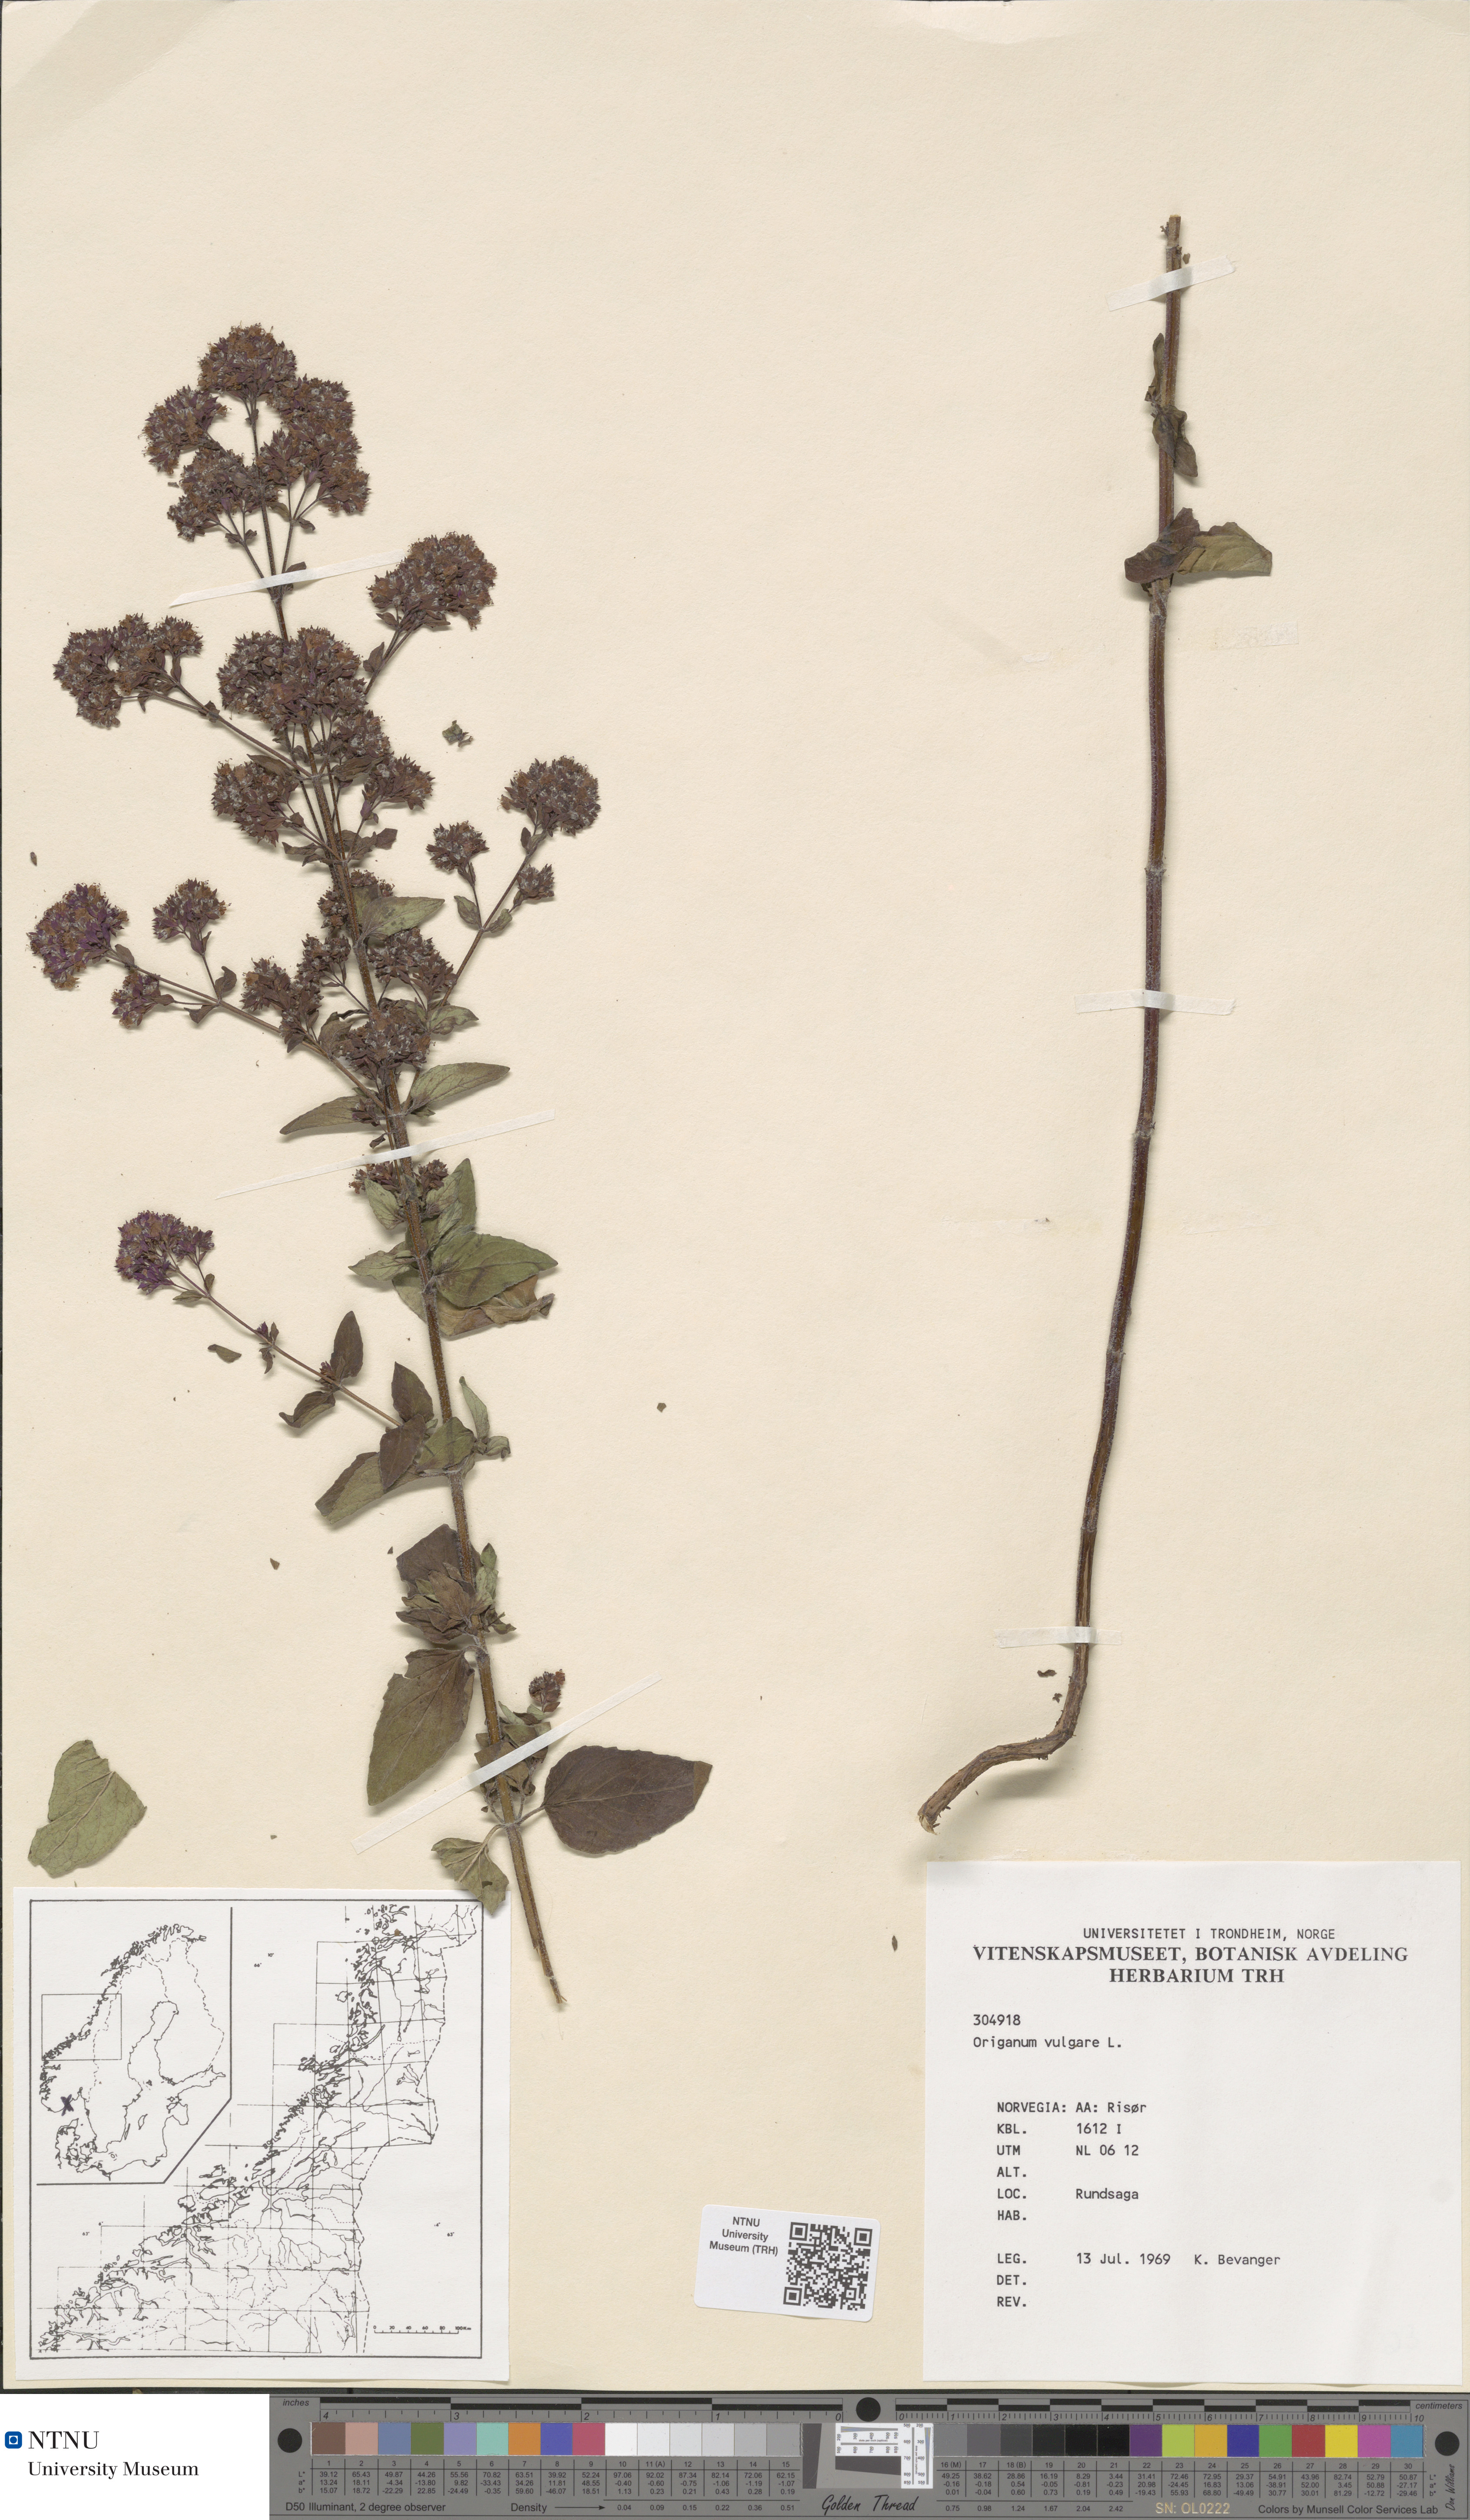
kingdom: Plantae
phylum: Tracheophyta
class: Magnoliopsida
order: Lamiales
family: Lamiaceae
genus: Origanum
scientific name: Origanum vulgare
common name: Wild marjoram
